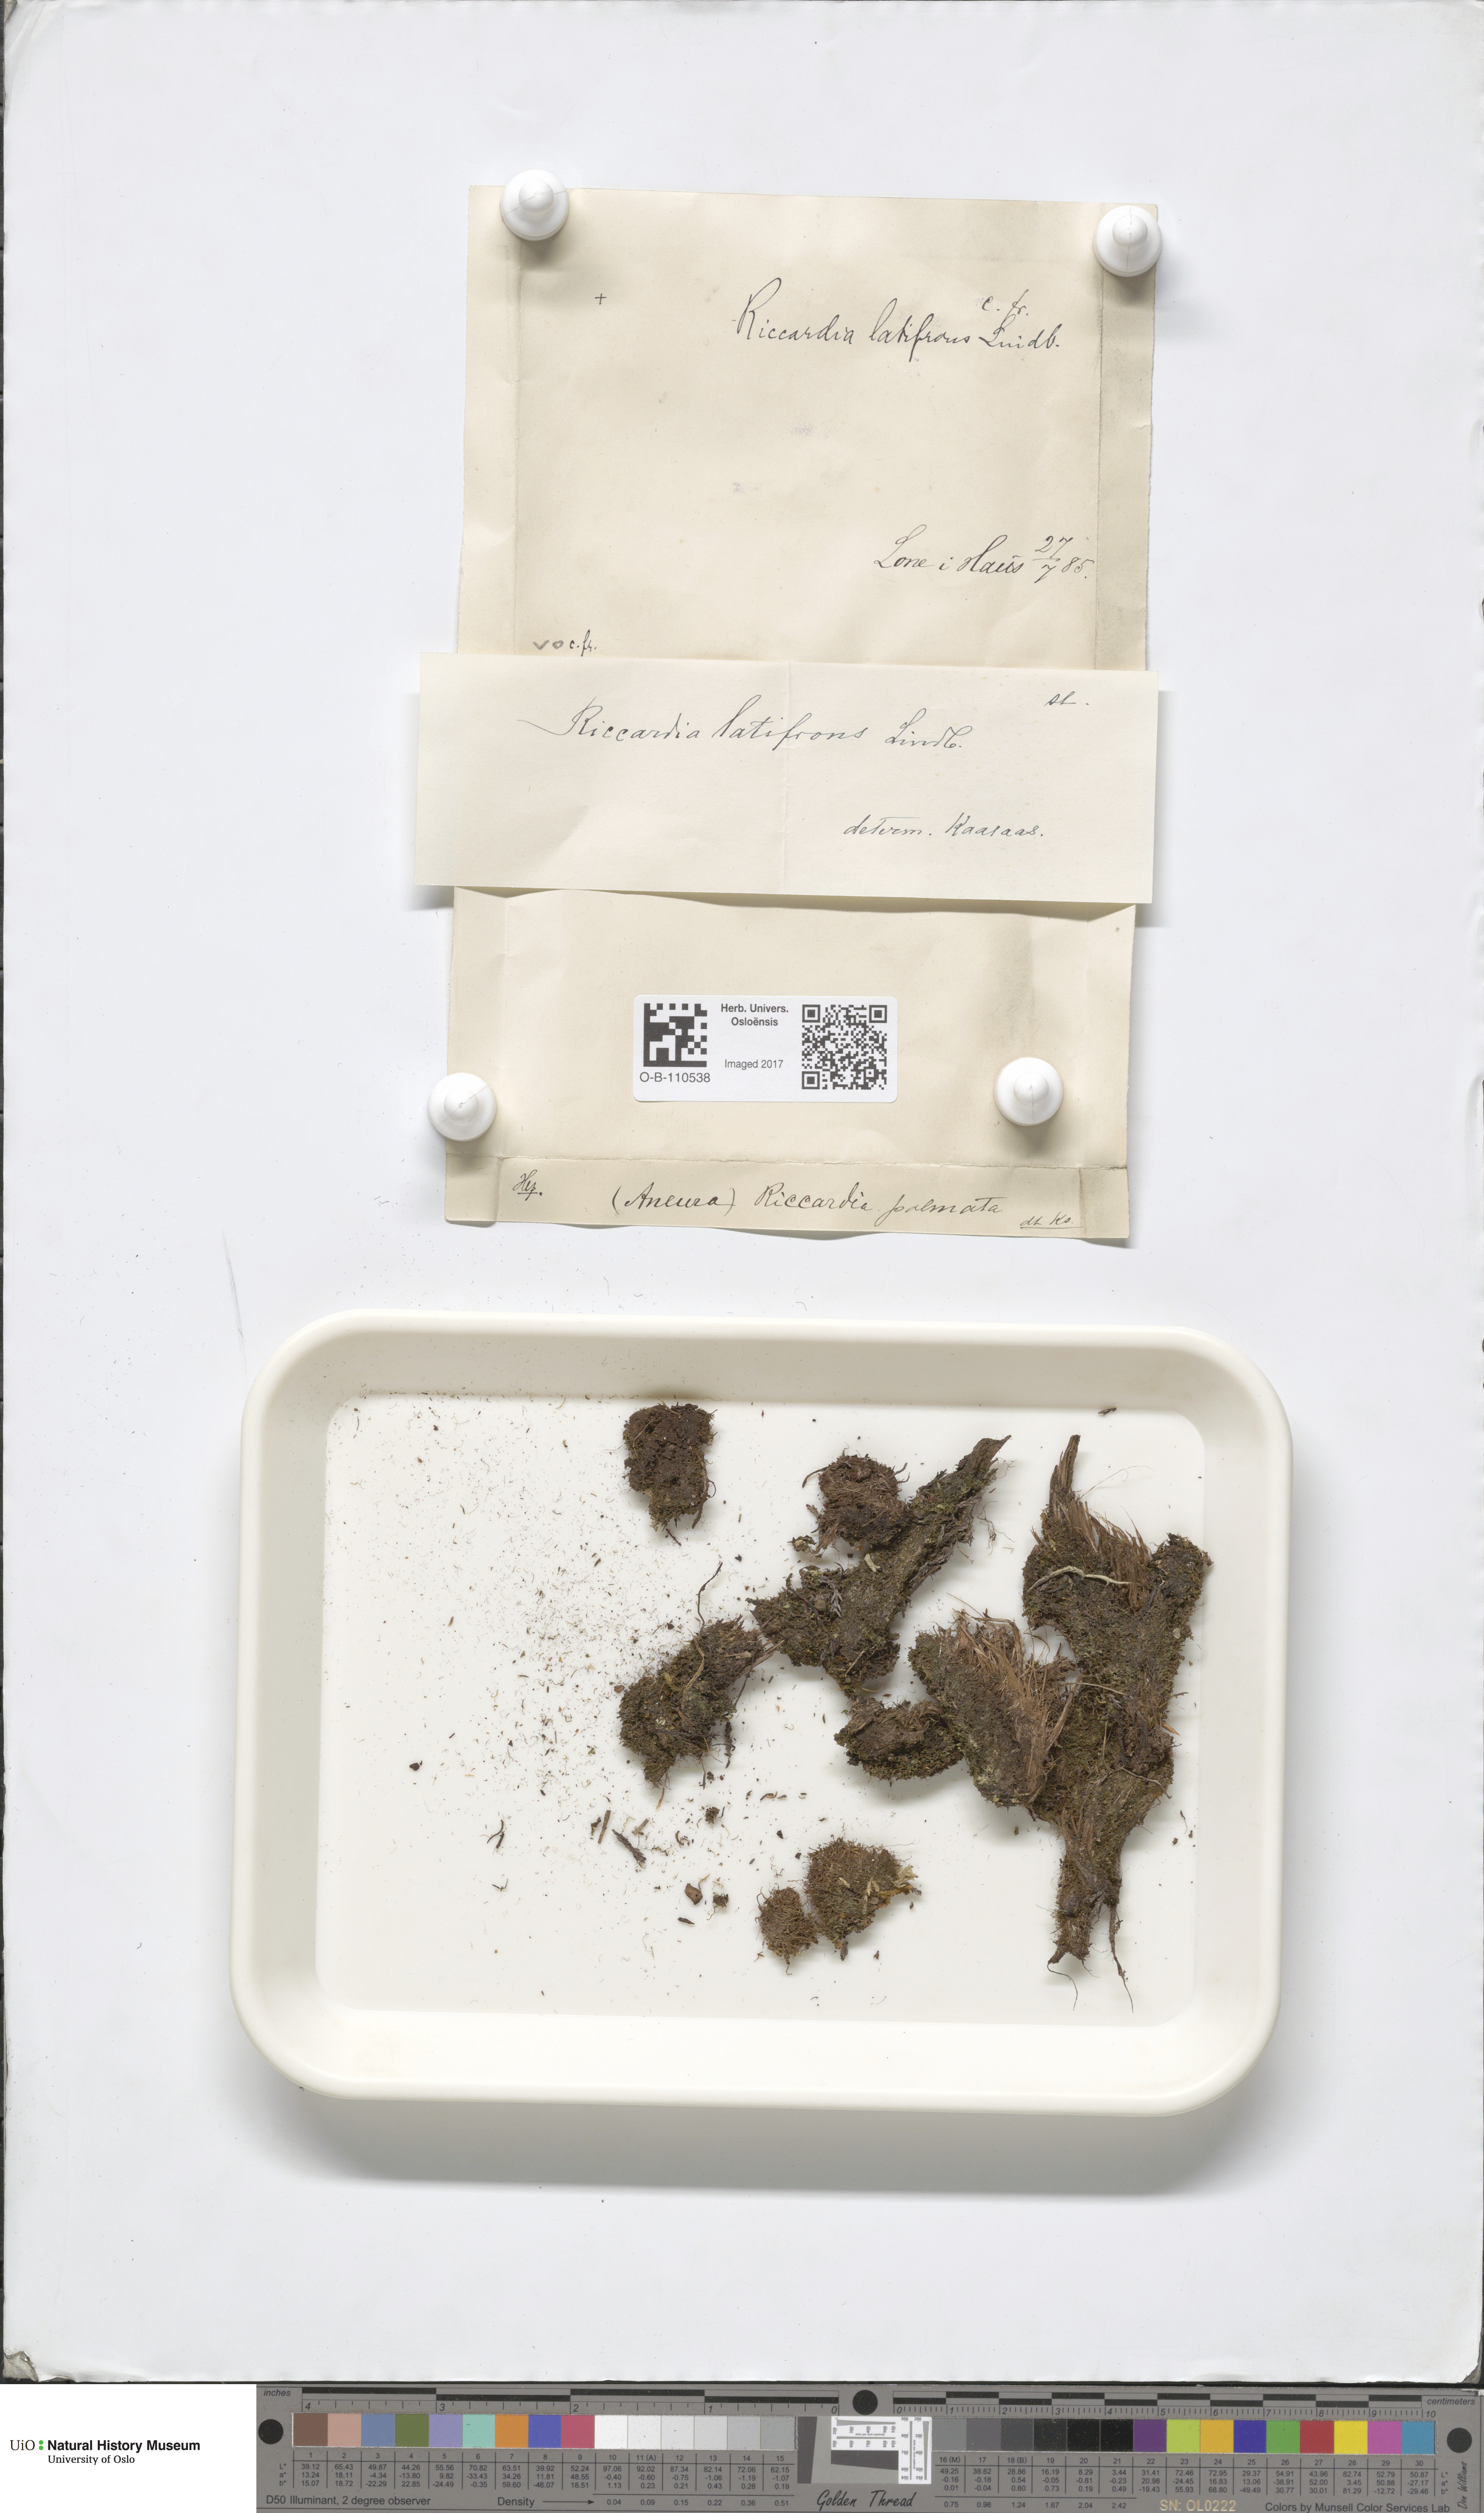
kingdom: Plantae
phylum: Marchantiophyta
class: Jungermanniopsida
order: Metzgeriales
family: Aneuraceae
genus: Riccardia
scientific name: Riccardia latifrons
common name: Bog germanderwort
